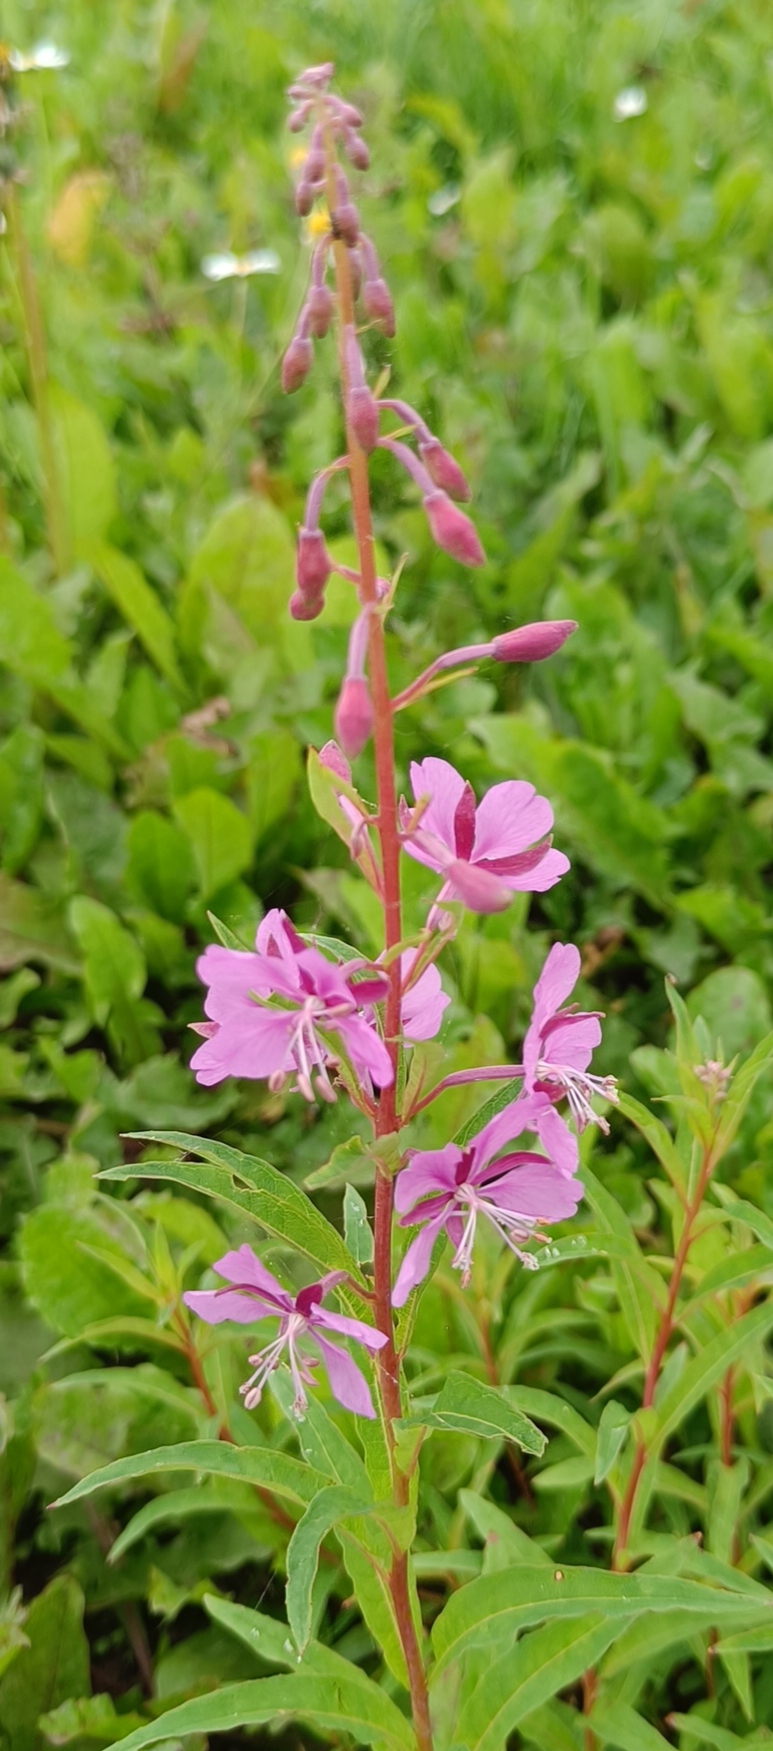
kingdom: Plantae
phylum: Tracheophyta
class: Magnoliopsida
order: Myrtales
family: Onagraceae
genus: Chamaenerion
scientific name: Chamaenerion angustifolium
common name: Gederams
